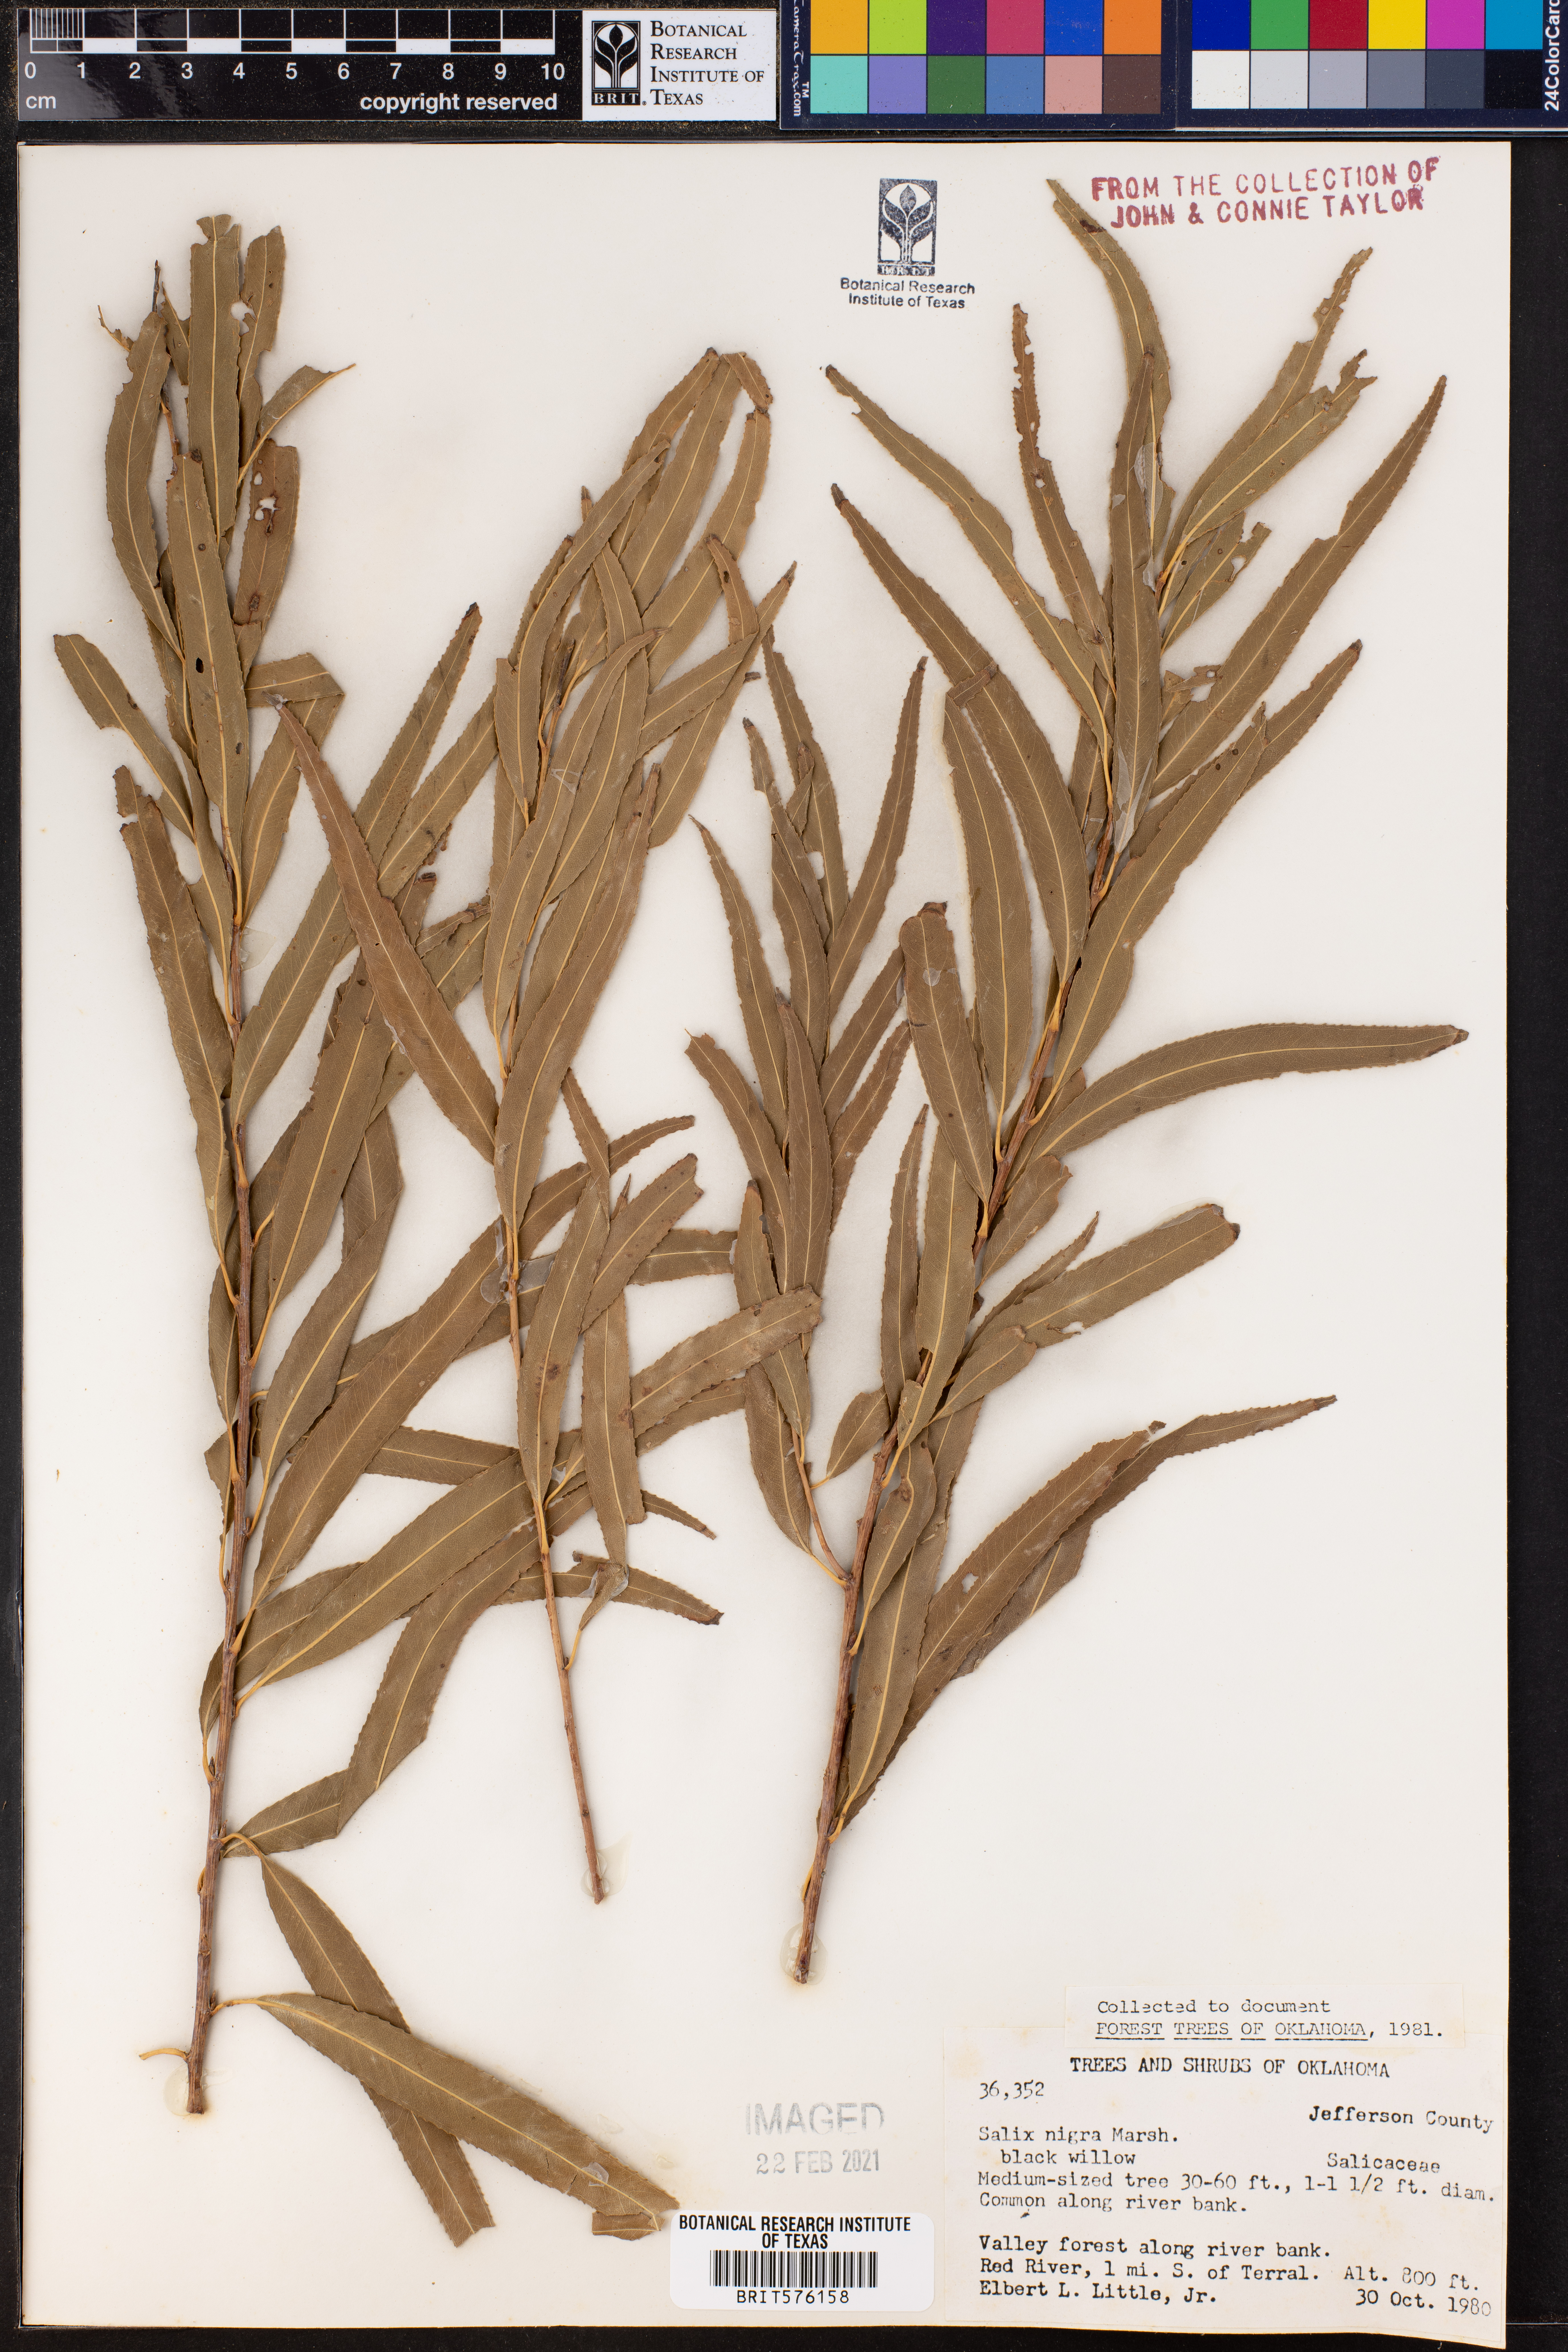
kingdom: Plantae
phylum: Tracheophyta
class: Magnoliopsida
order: Malpighiales
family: Salicaceae
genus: Salix
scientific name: Salix nigra
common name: Black willow
